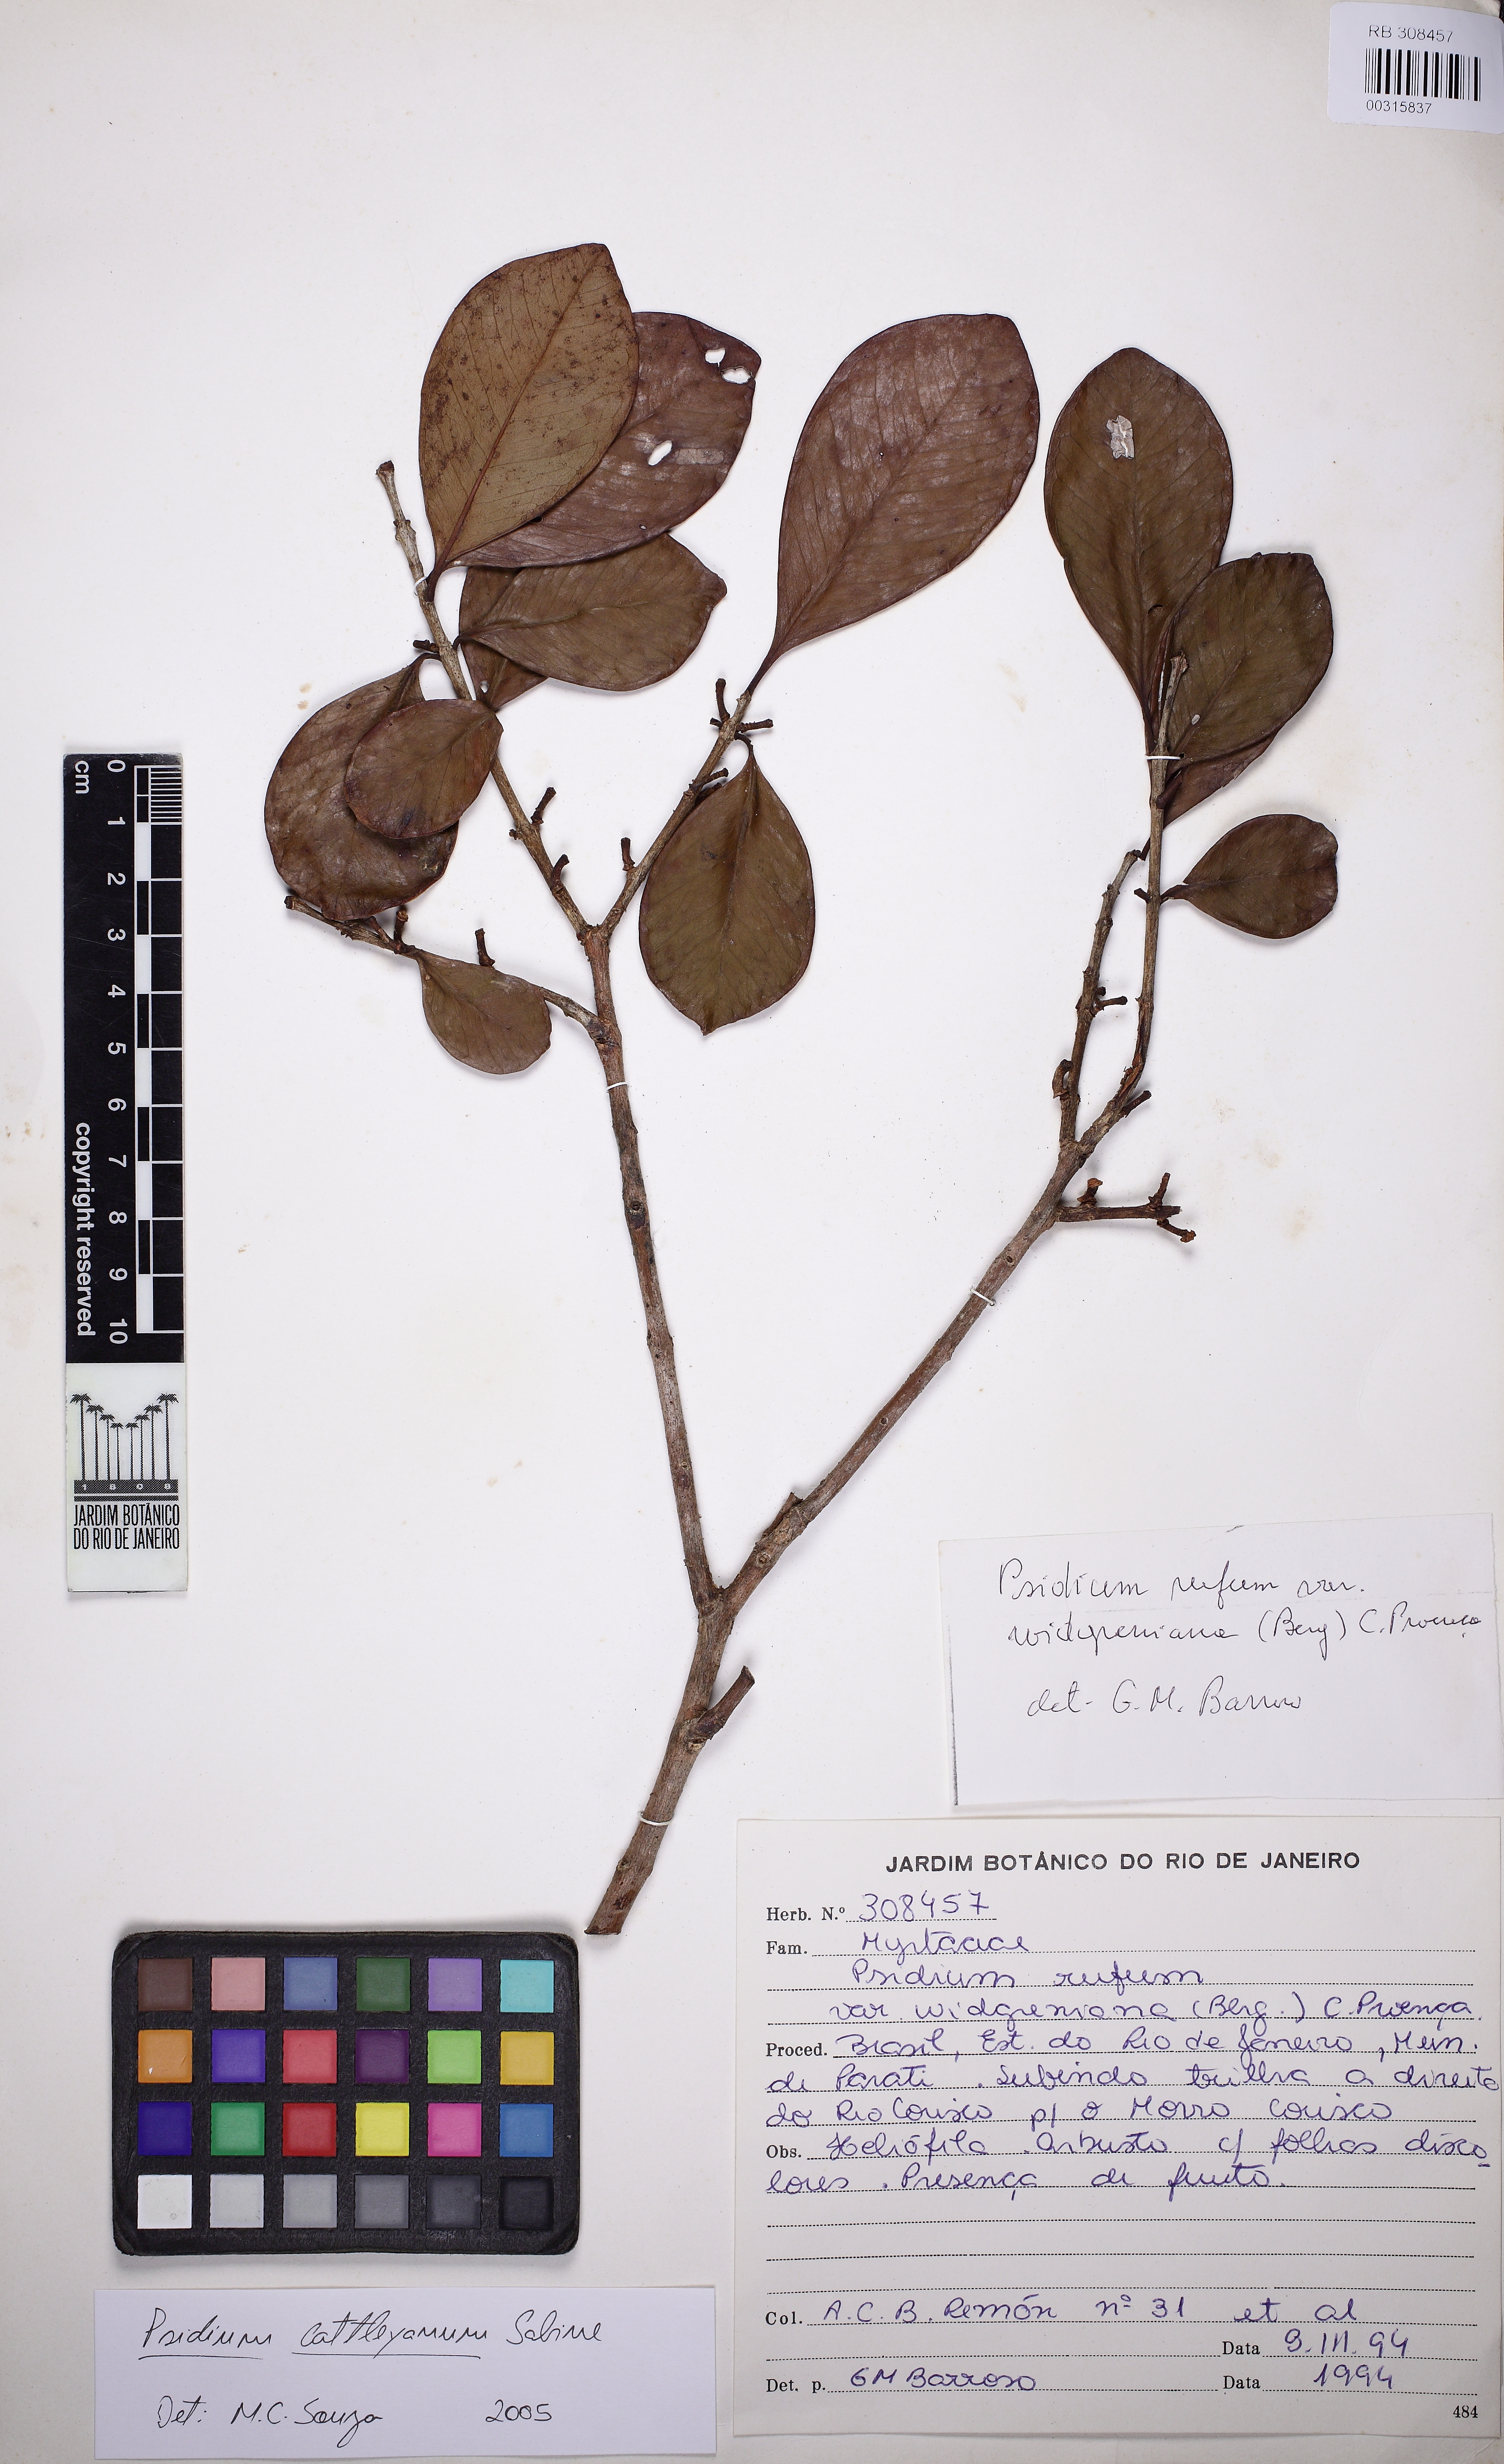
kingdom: Plantae
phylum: Tracheophyta
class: Magnoliopsida
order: Myrtales
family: Myrtaceae
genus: Psidium
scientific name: Psidium cattleianum
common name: Strawberry guava
